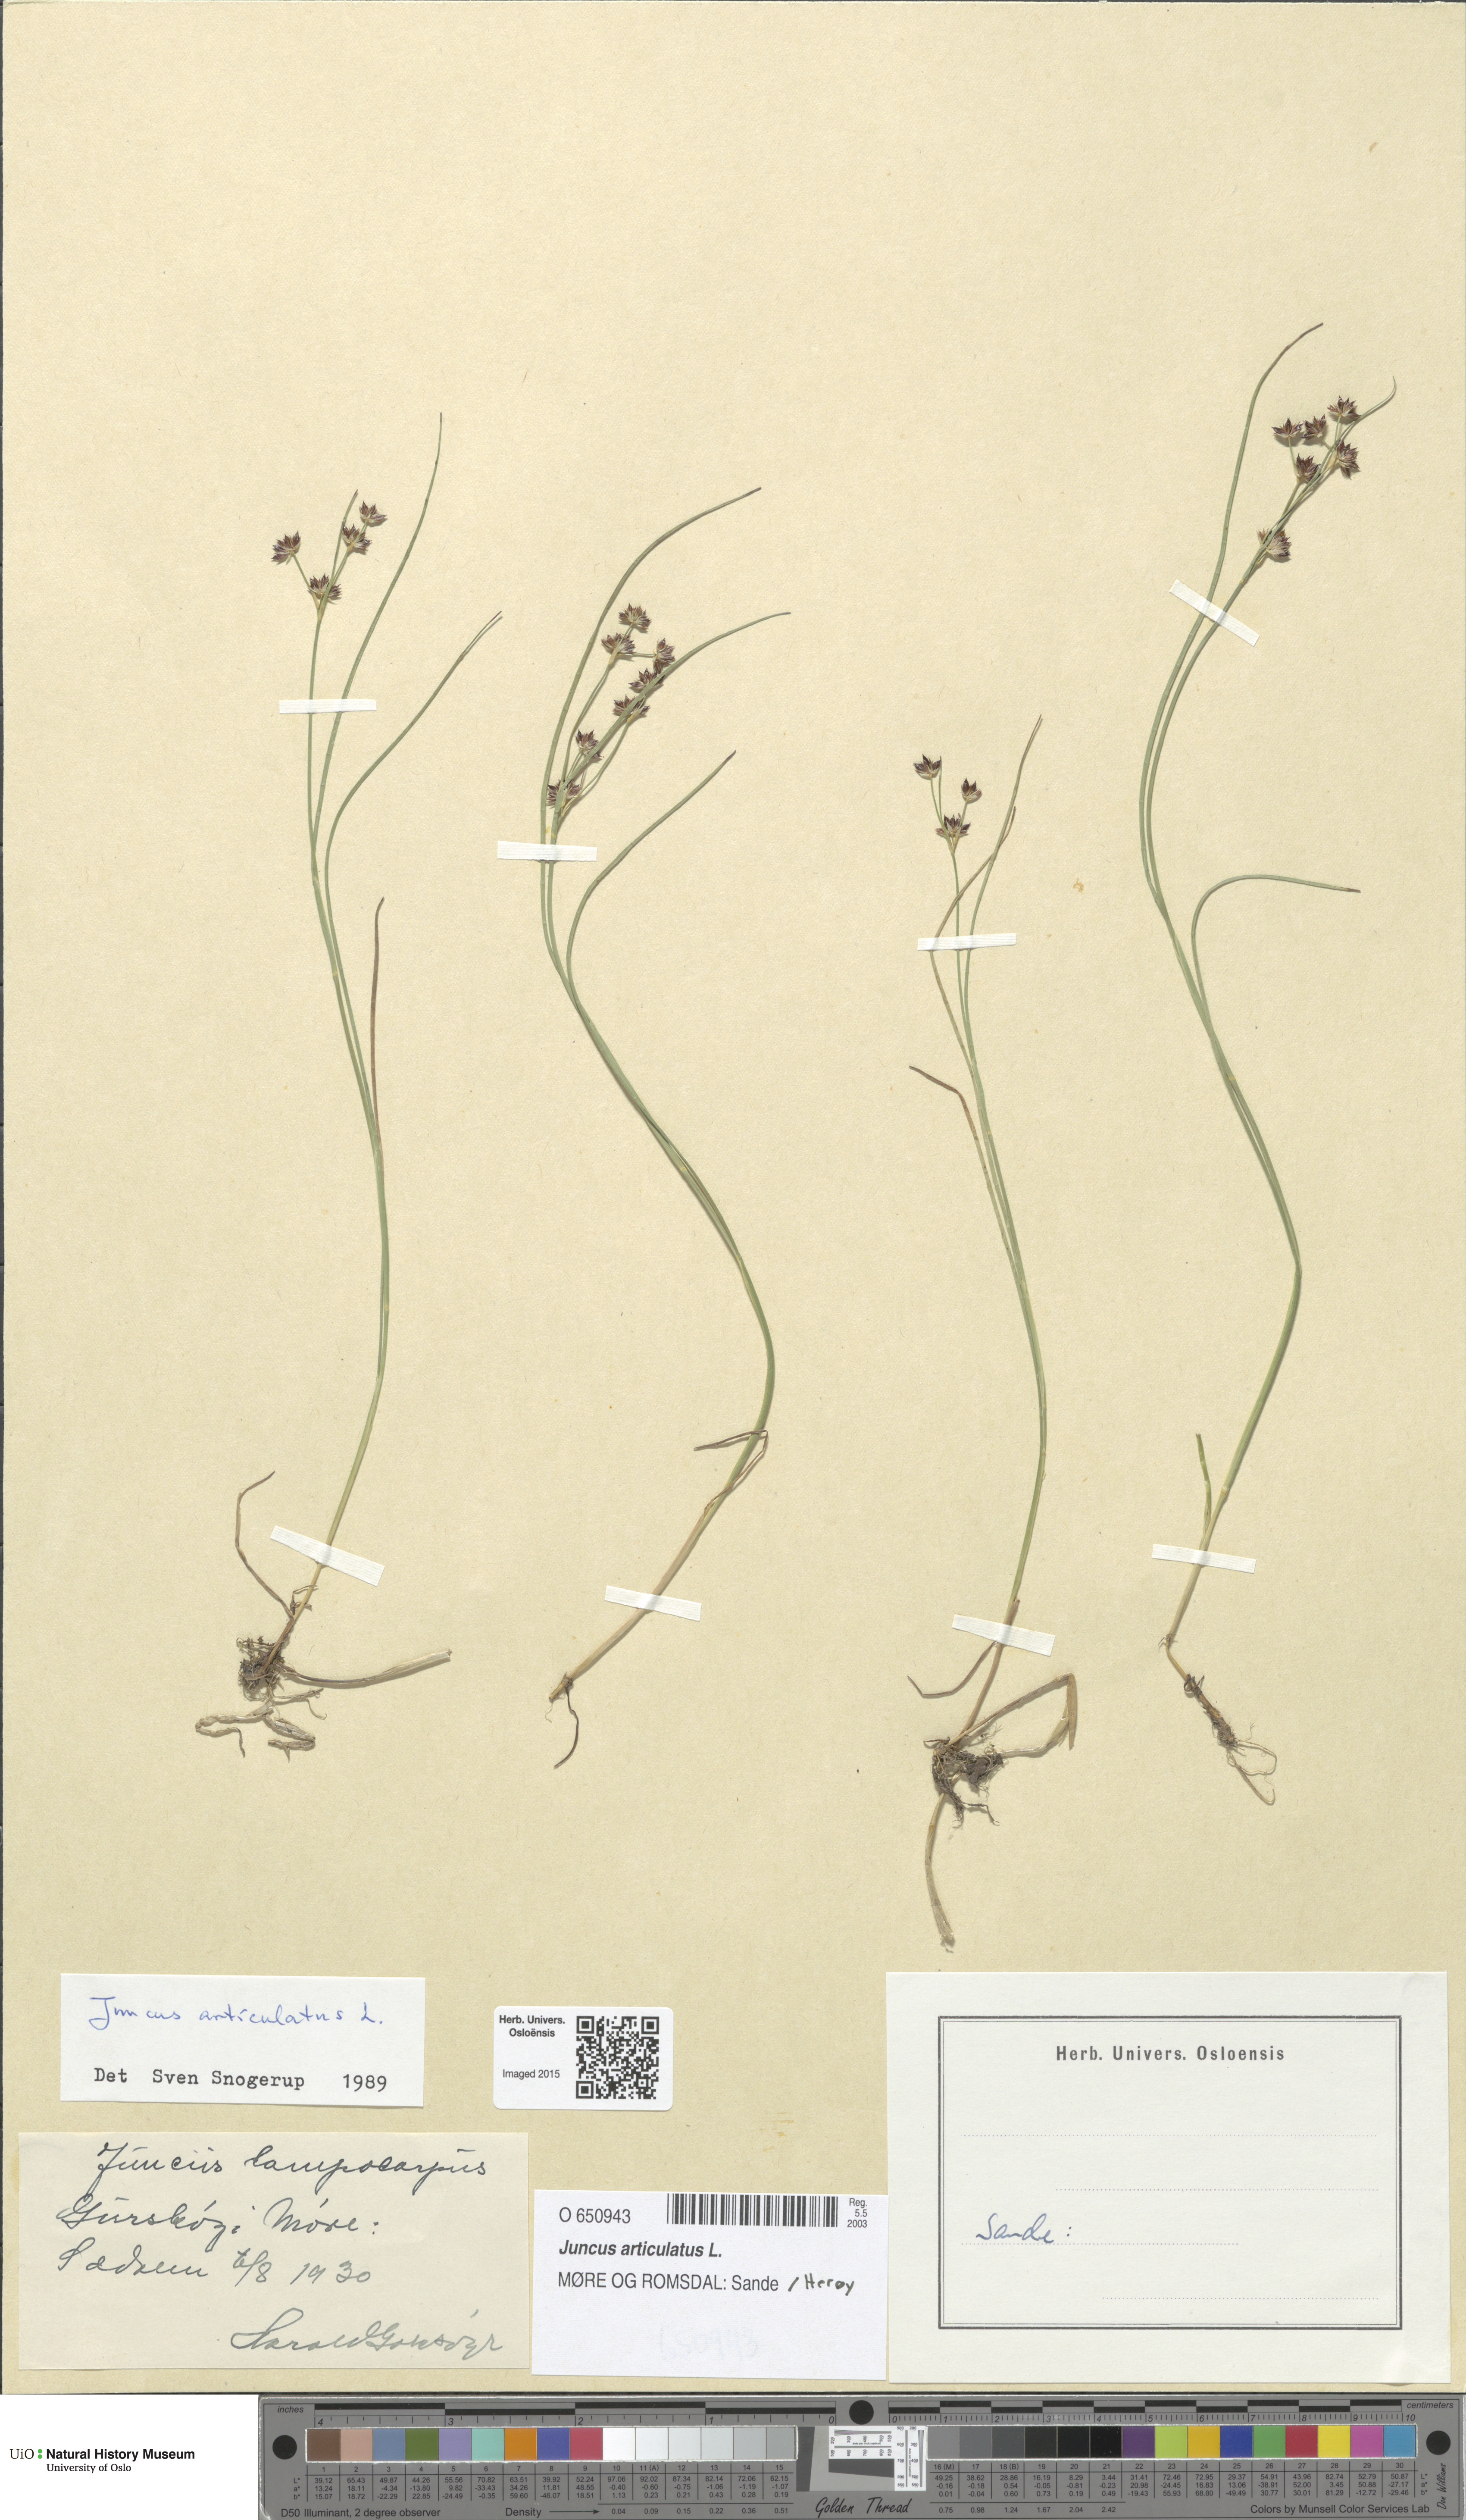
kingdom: Plantae
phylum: Tracheophyta
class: Liliopsida
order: Poales
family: Juncaceae
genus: Juncus
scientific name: Juncus articulatus
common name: Jointed rush
